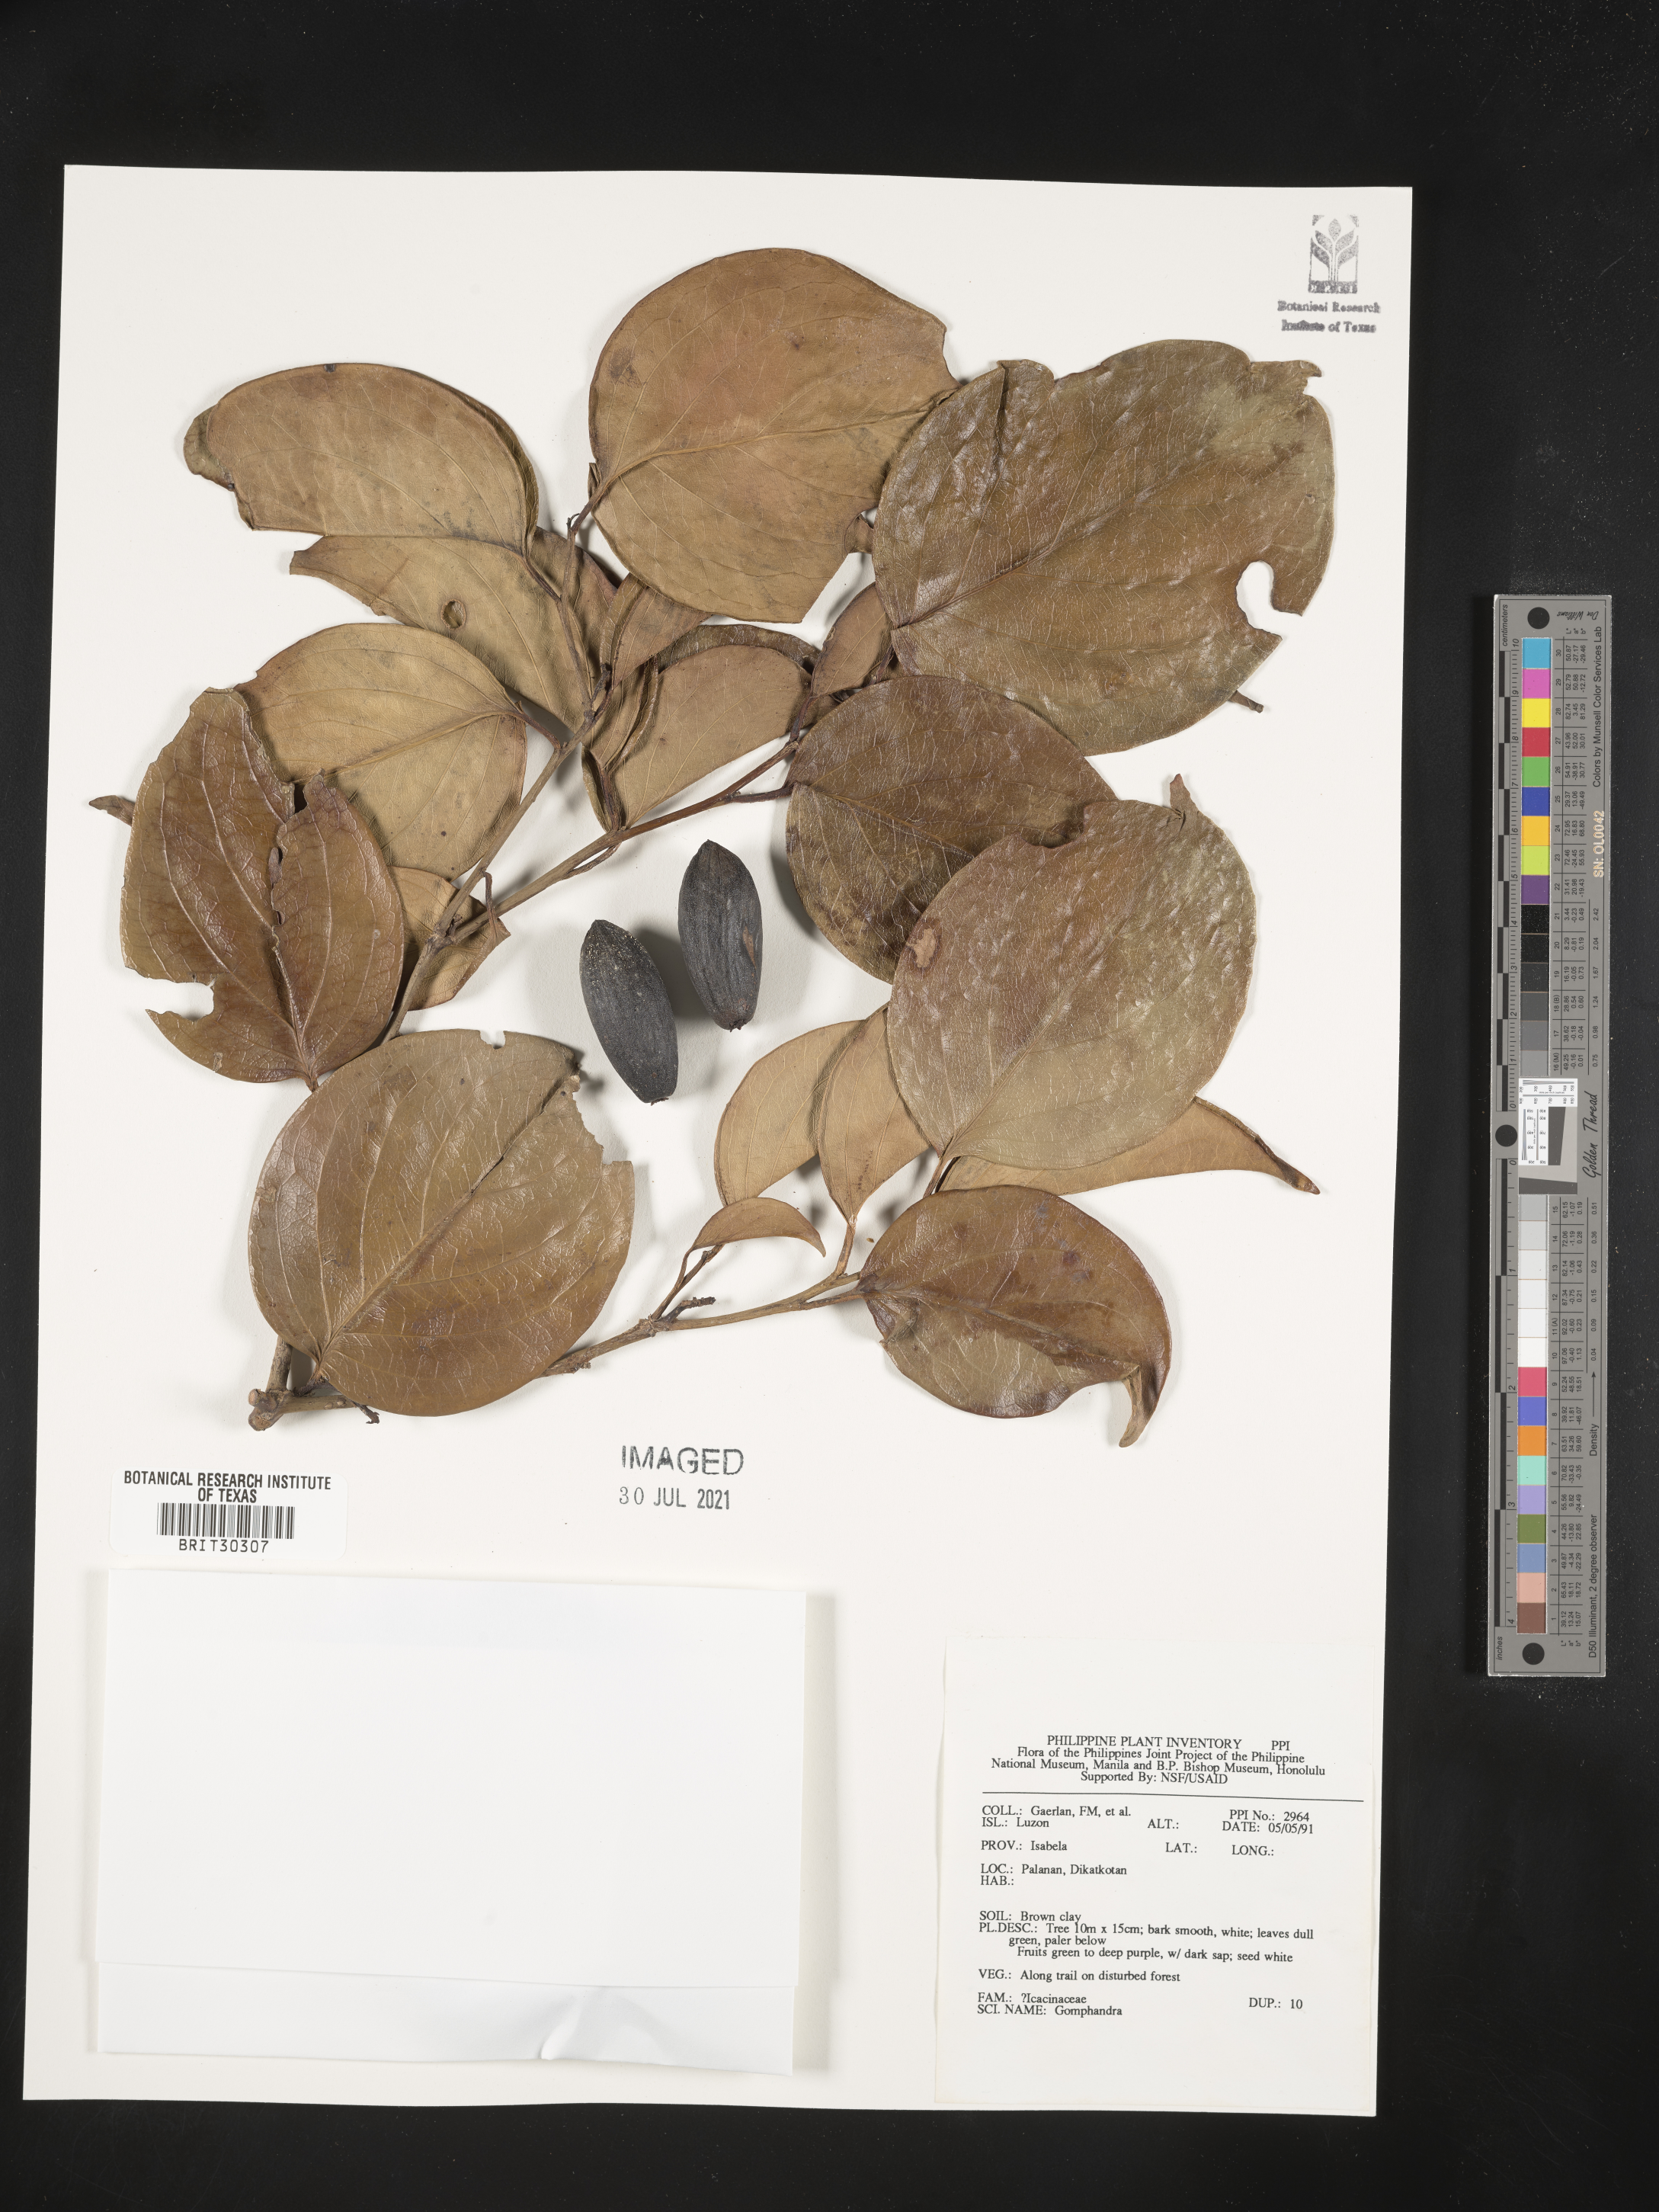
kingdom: Plantae
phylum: Tracheophyta
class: Magnoliopsida
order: Cardiopteridales
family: Stemonuraceae
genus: Gomphandra
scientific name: Gomphandra
